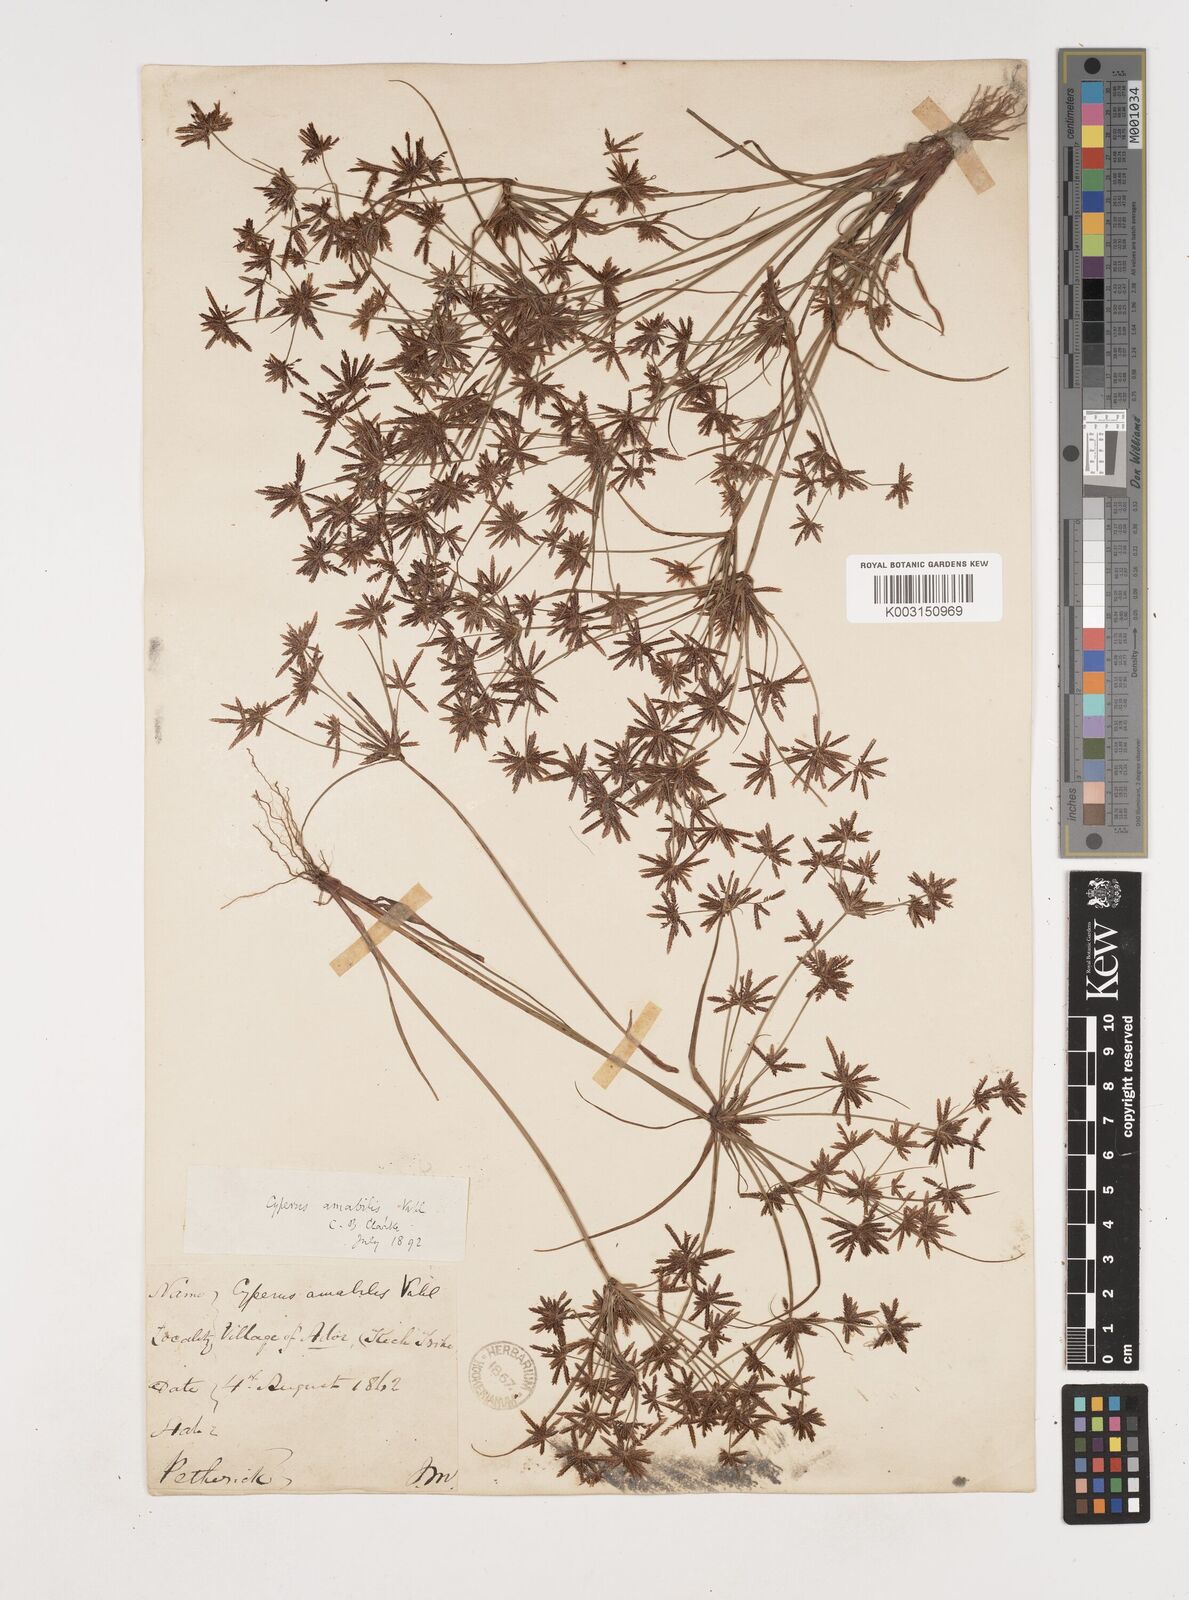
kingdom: Plantae
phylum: Tracheophyta
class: Liliopsida
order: Poales
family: Cyperaceae
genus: Cyperus
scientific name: Cyperus amabilis
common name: Foothill flat sedge
